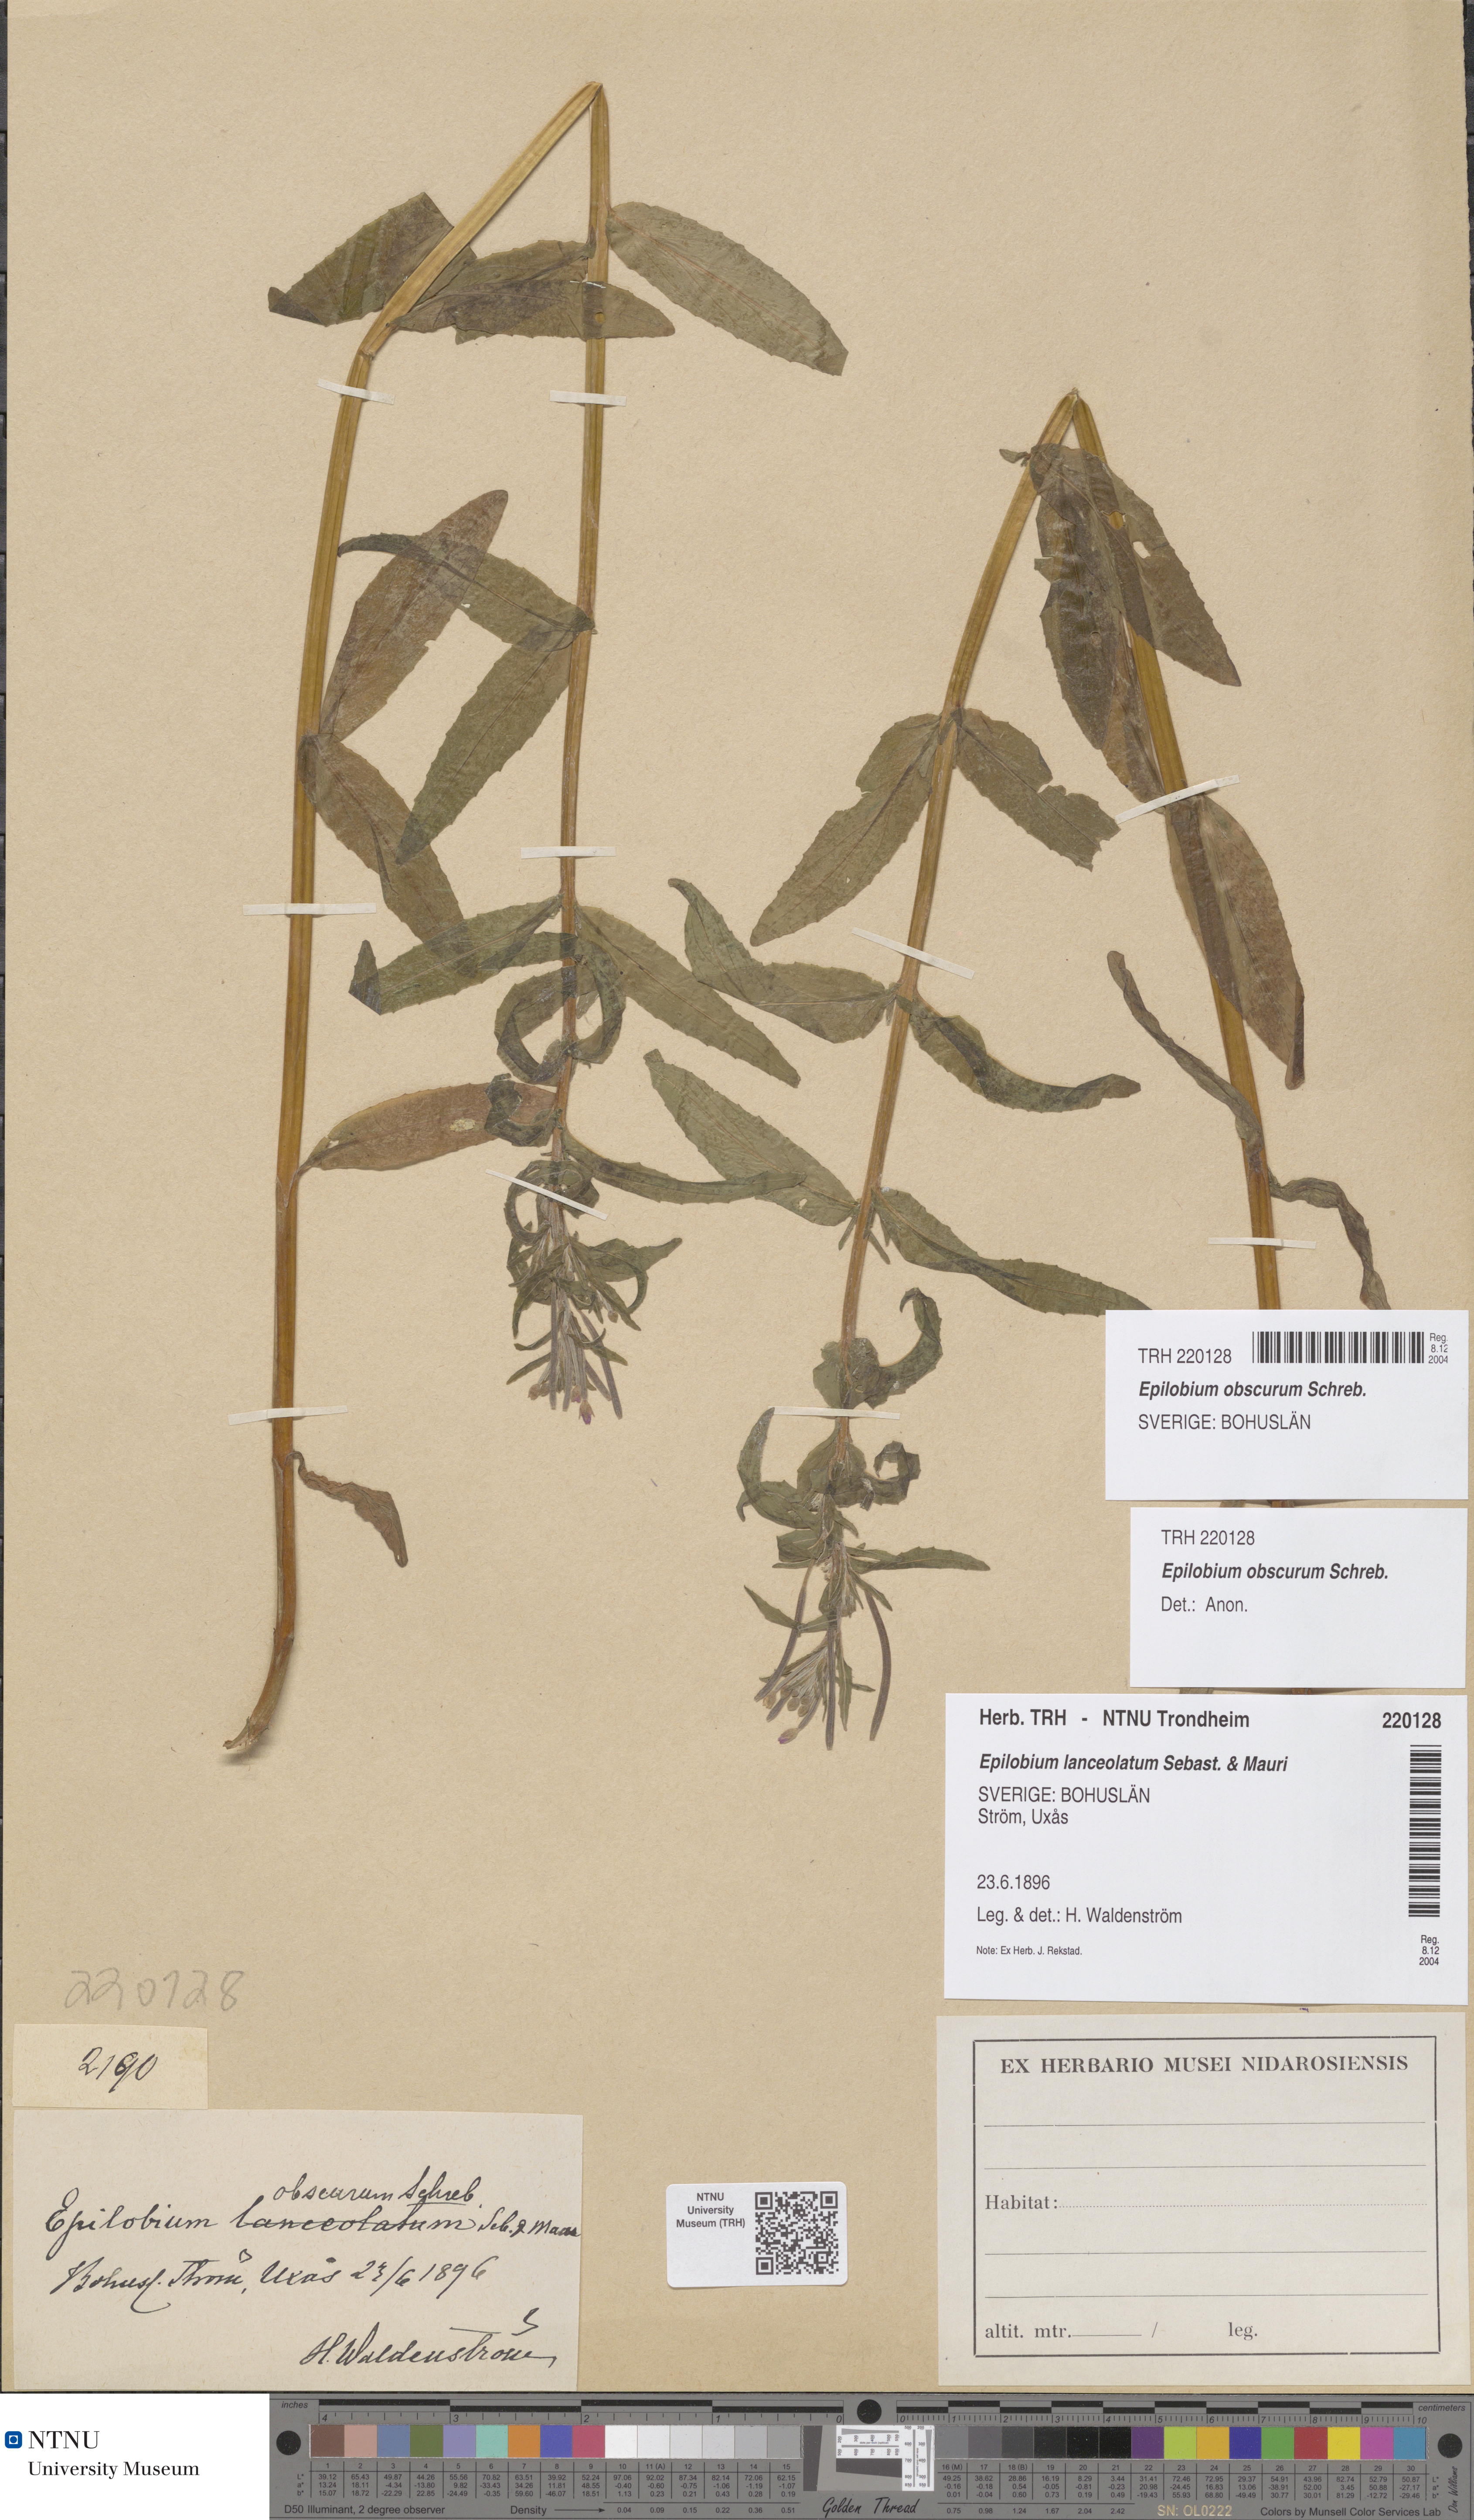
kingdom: Plantae
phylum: Tracheophyta
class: Magnoliopsida
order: Myrtales
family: Onagraceae
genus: Epilobium
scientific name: Epilobium obscurum
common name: Short-fruited willowherb
